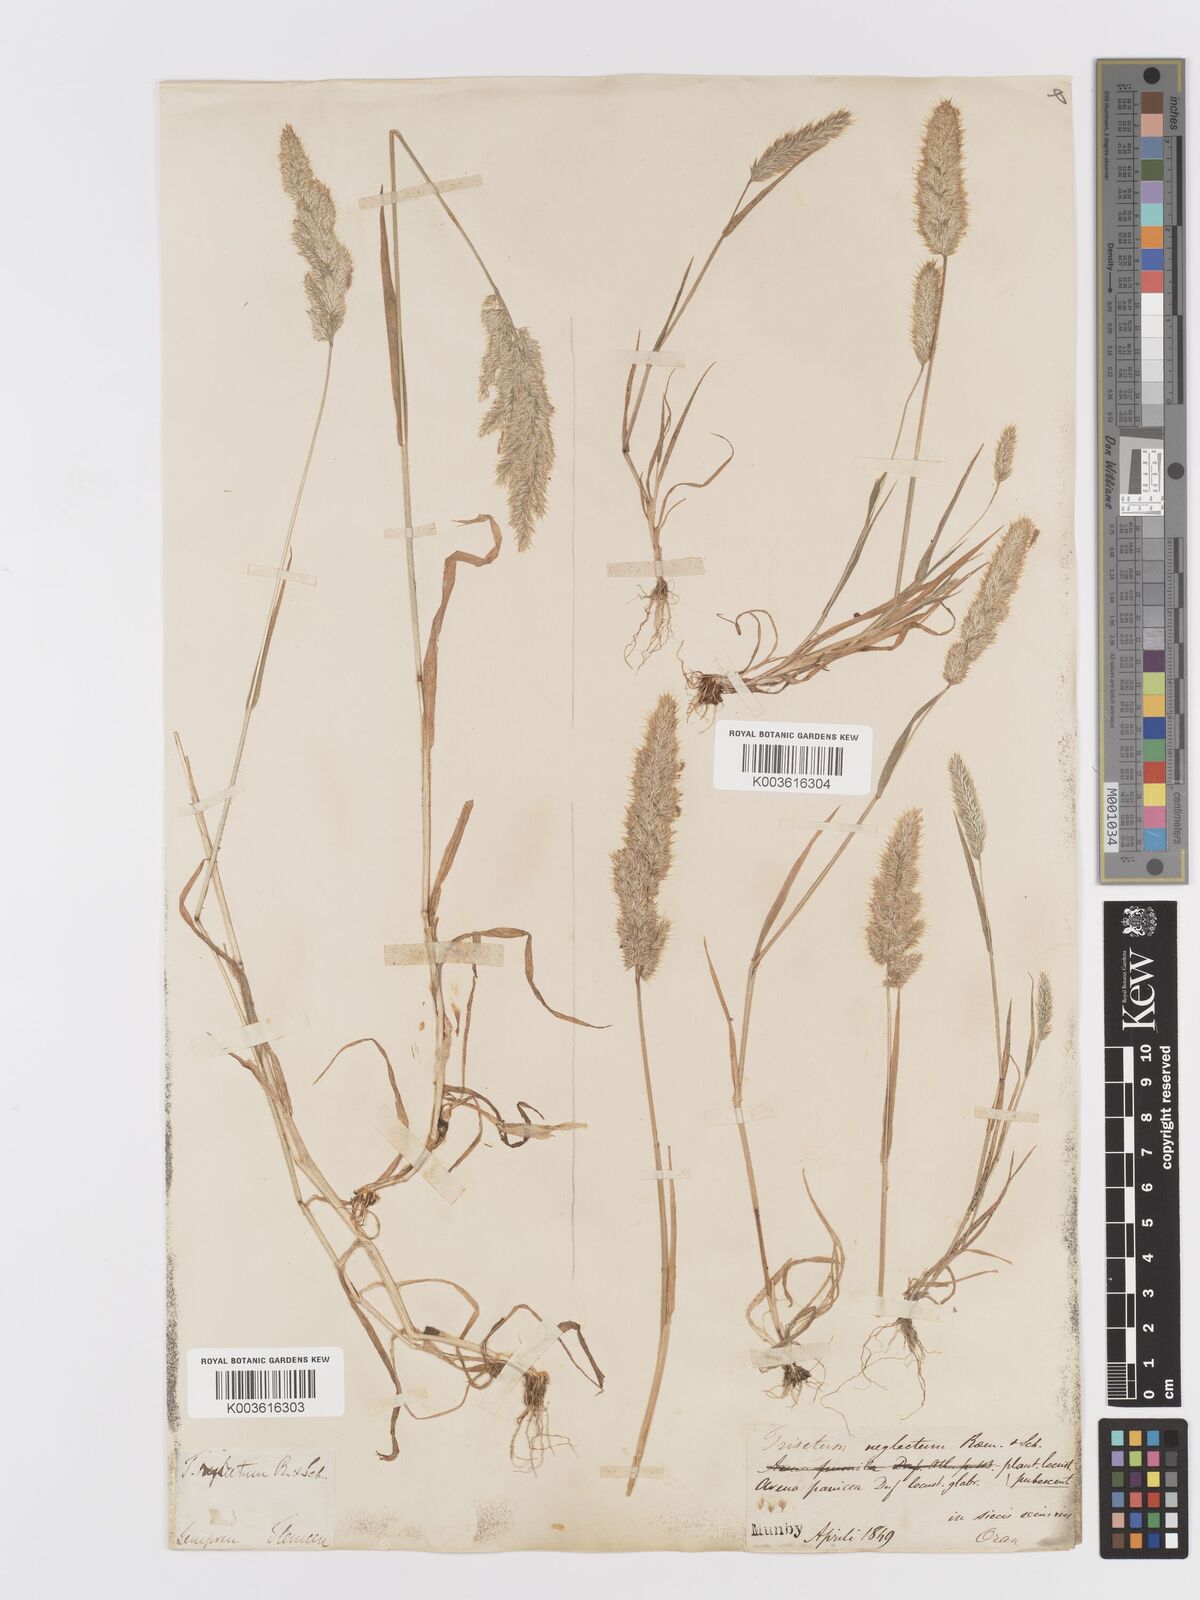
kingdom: Plantae
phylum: Tracheophyta
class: Liliopsida
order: Poales
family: Poaceae
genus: Trisetaria
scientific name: Trisetaria panicea
